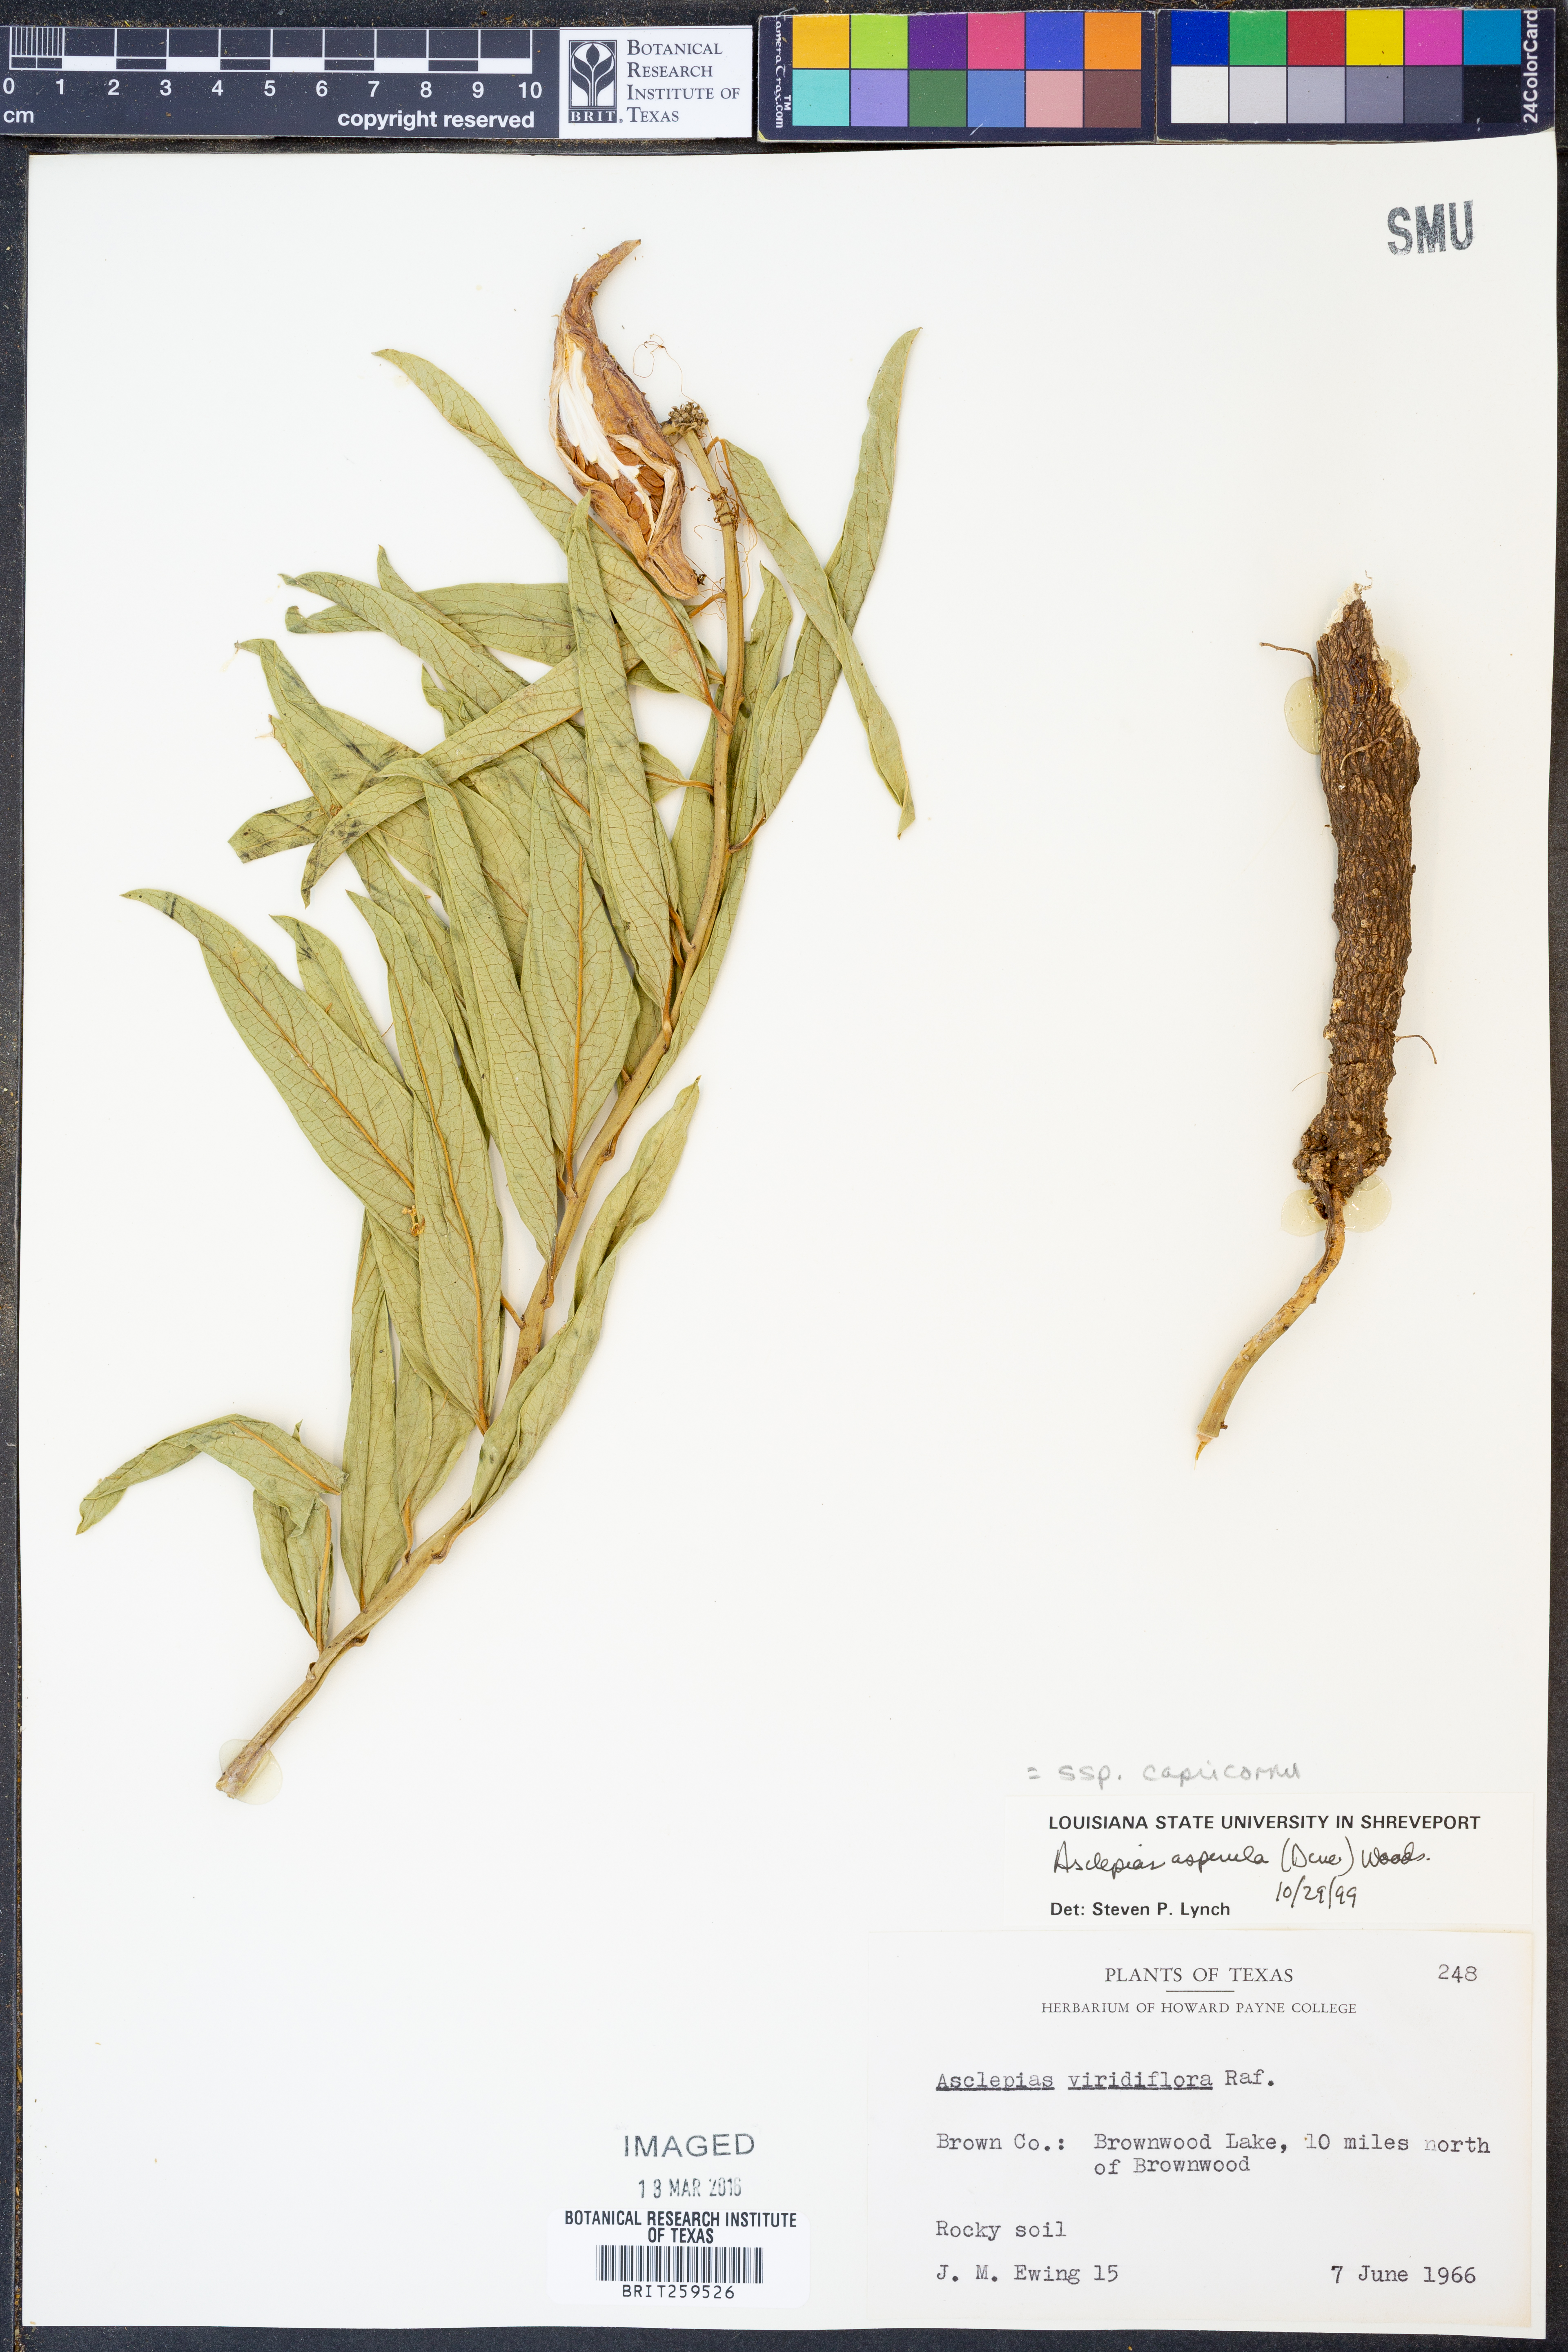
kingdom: Plantae
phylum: Tracheophyta
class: Magnoliopsida
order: Gentianales
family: Apocynaceae
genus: Asclepias
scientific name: Asclepias asperula
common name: Antelope horns
